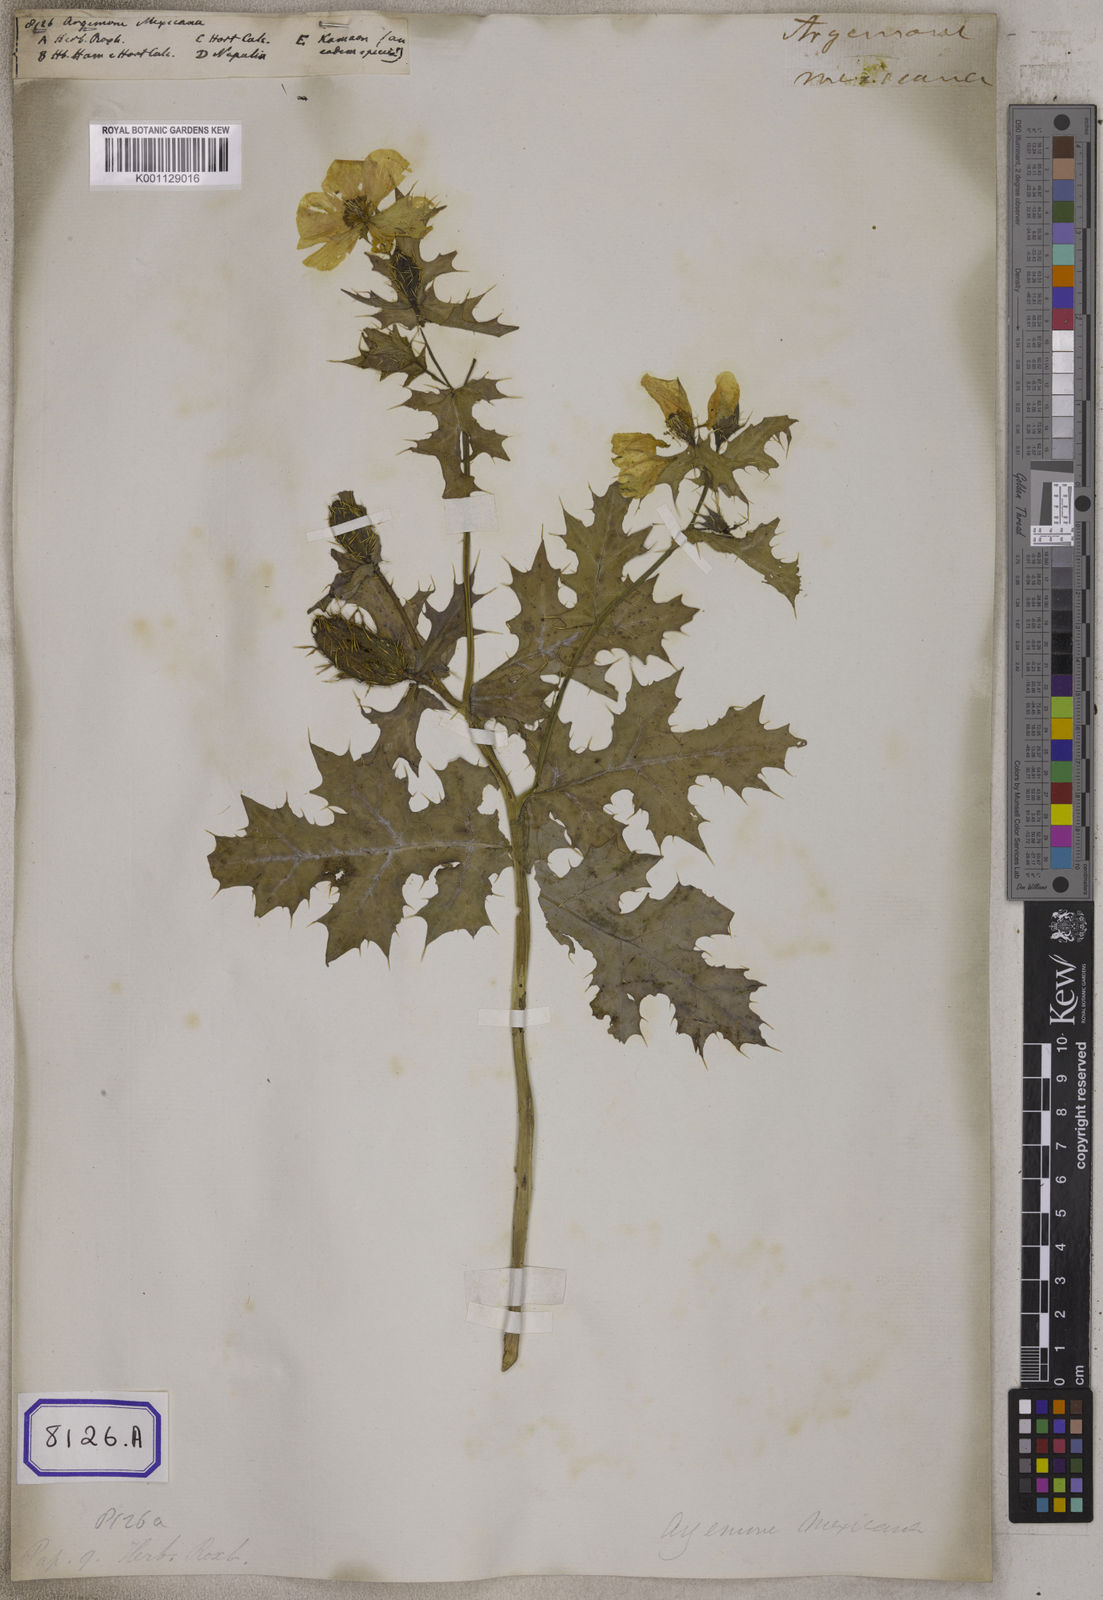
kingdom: Plantae
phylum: Tracheophyta
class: Magnoliopsida
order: Ranunculales
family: Papaveraceae
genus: Argemone
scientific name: Argemone mexicana
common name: Mexican poppy
